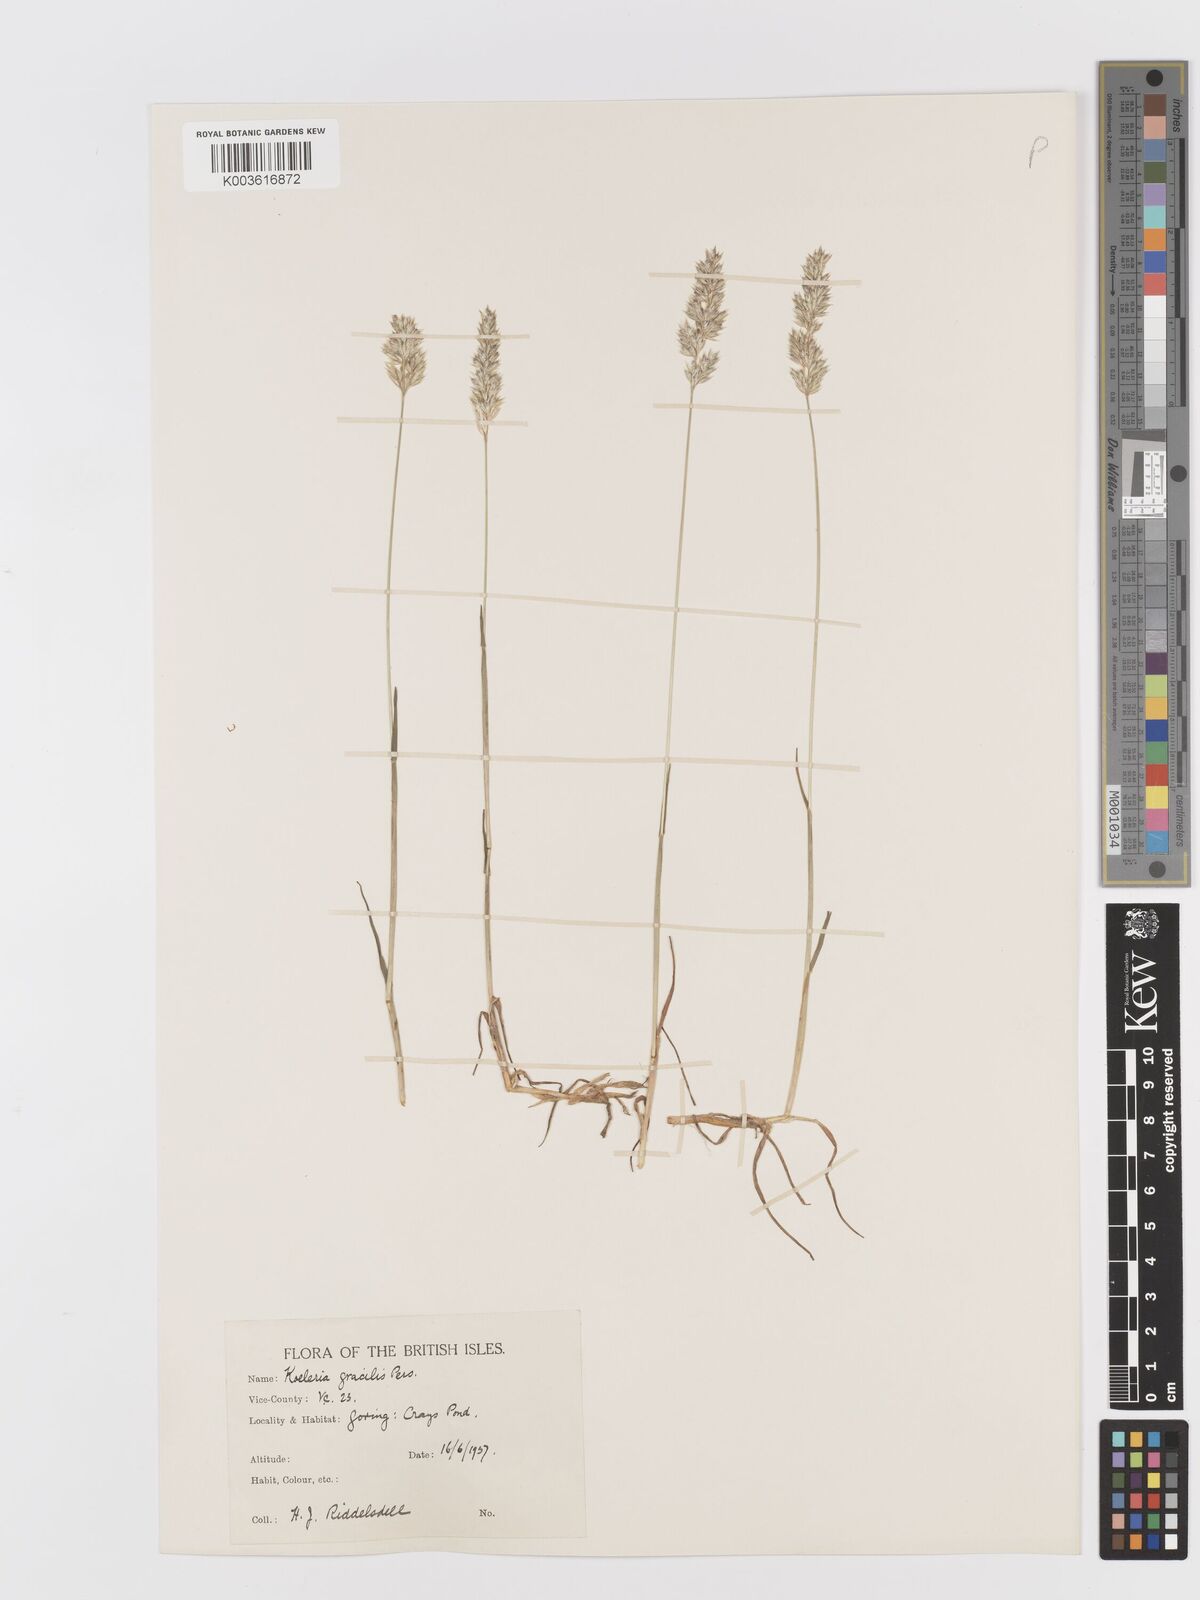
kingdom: Plantae
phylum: Tracheophyta
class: Liliopsida
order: Poales
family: Poaceae
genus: Koeleria
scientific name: Koeleria macrantha
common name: Crested hair-grass
